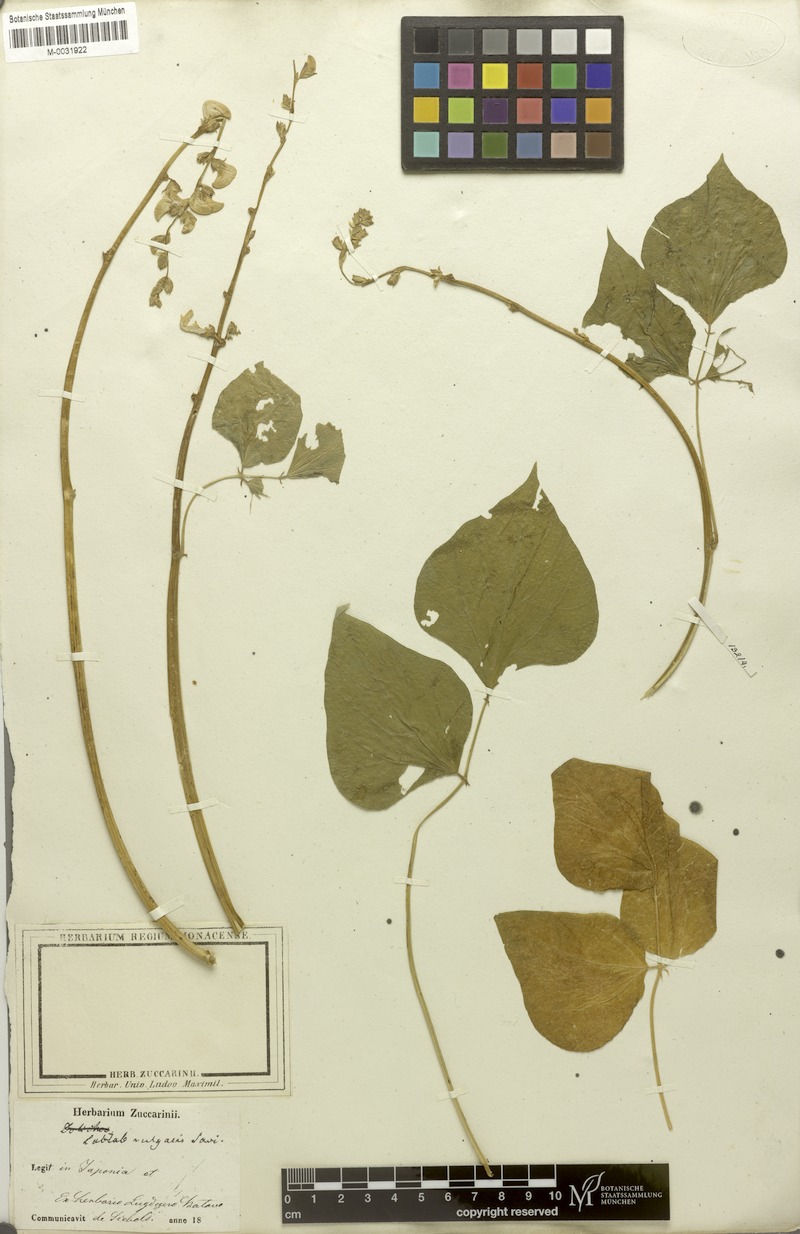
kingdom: Plantae
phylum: Tracheophyta
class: Magnoliopsida
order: Fabales
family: Fabaceae
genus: Lablab
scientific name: Lablab purpureus
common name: Lablab-bean
